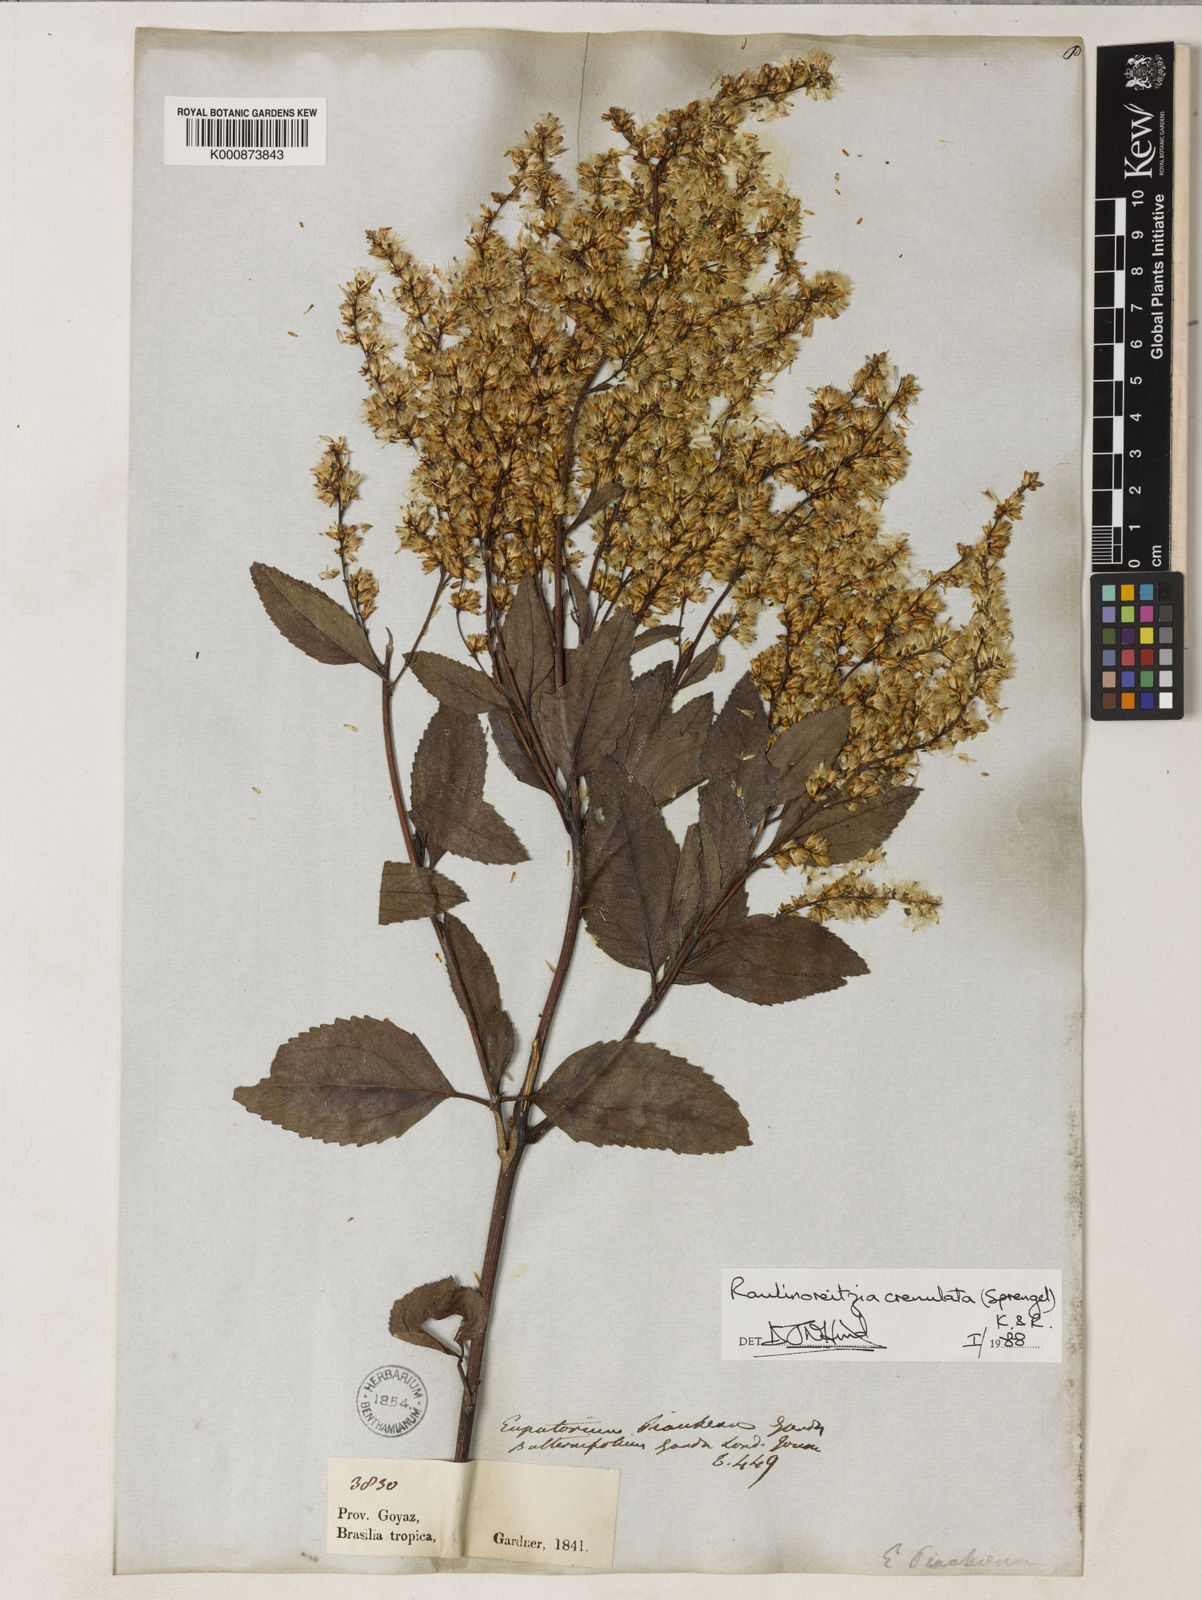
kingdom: Plantae
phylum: Tracheophyta
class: Magnoliopsida
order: Asterales
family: Asteraceae
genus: Raulinoreitzia
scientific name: Raulinoreitzia crenulata
